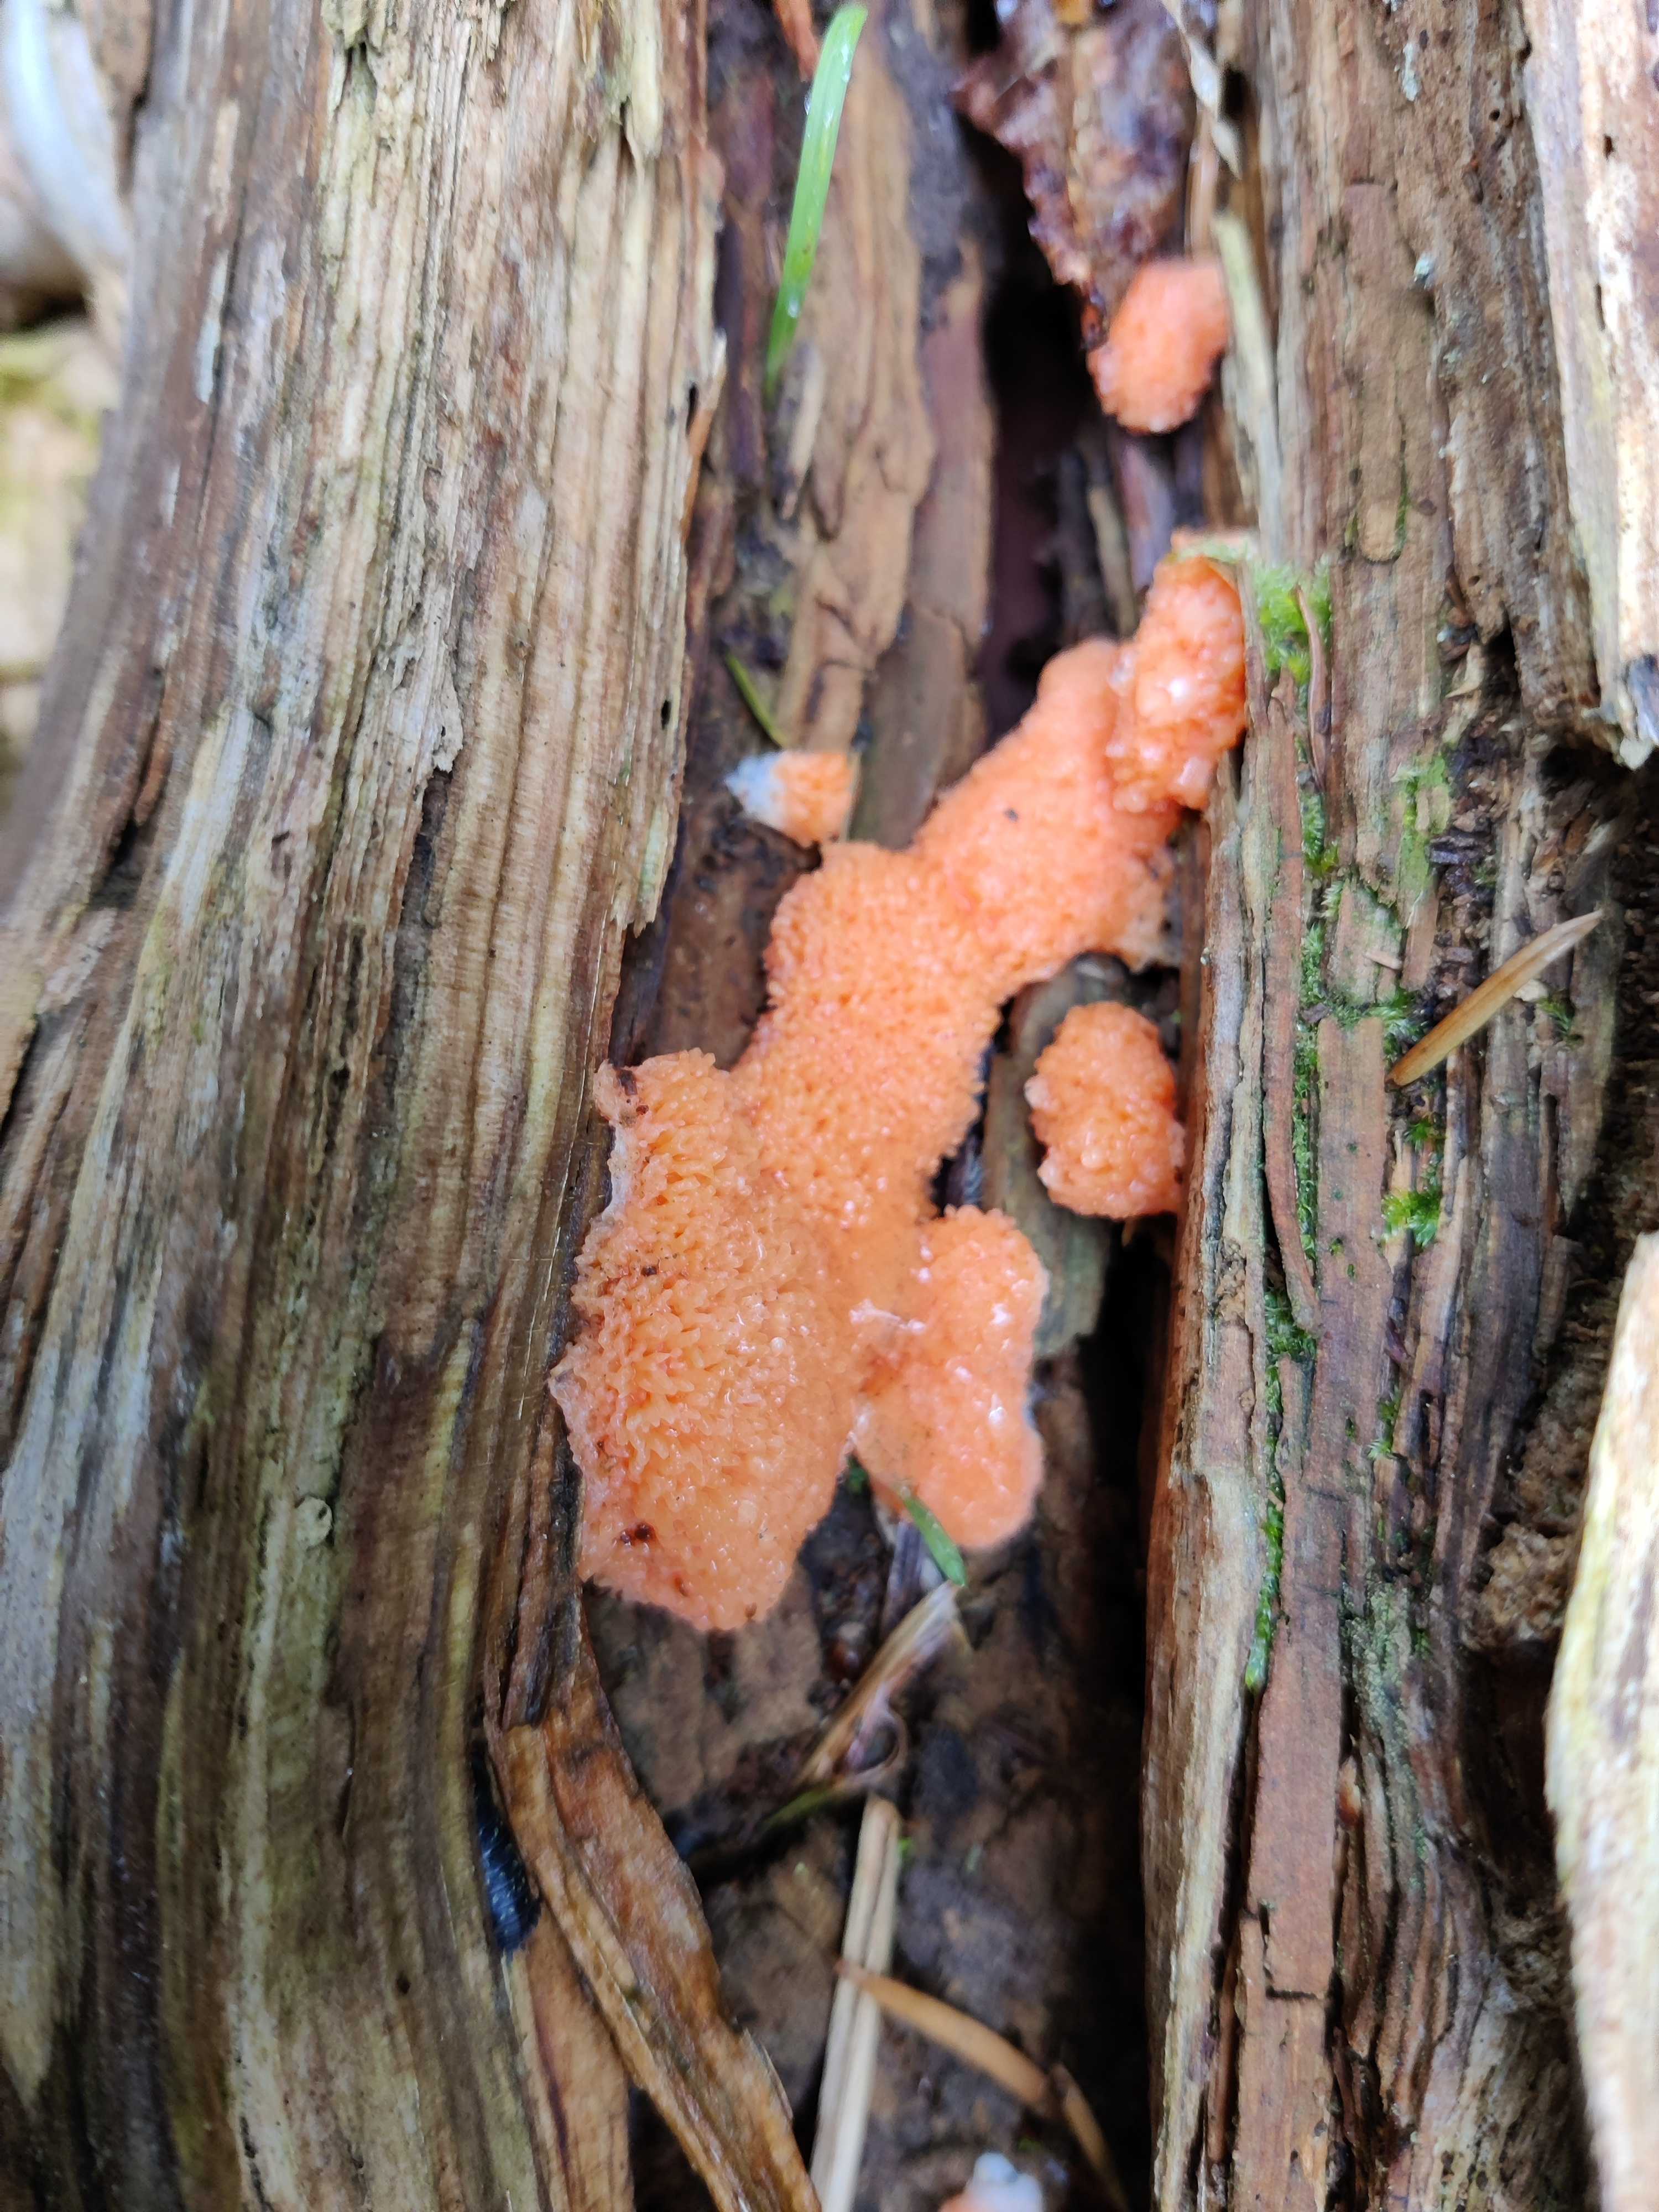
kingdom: Protozoa
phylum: Mycetozoa
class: Myxomycetes
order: Cribrariales
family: Tubiferaceae
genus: Tubifera
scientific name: Tubifera ferruginosa
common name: kanel-støvrør
